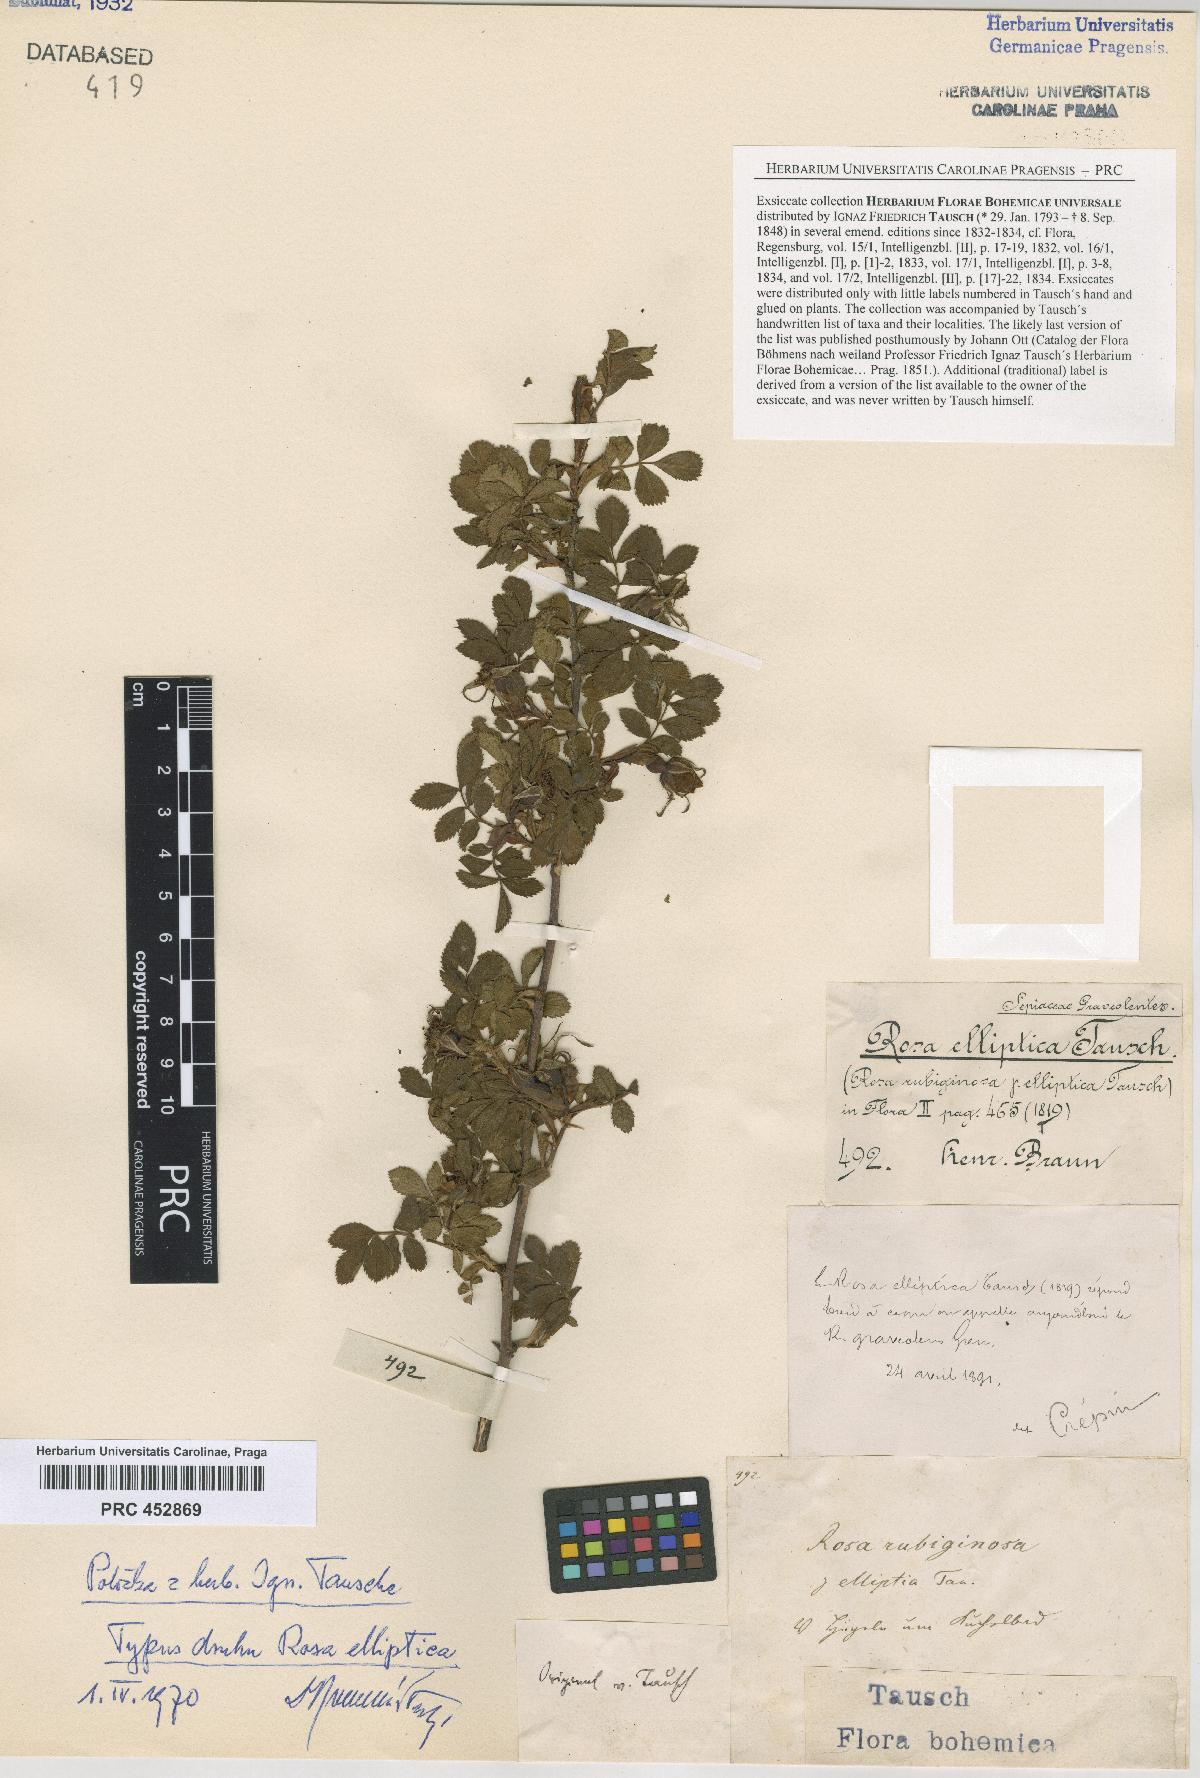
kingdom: Plantae
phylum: Tracheophyta
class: Magnoliopsida
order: Rosales
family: Rosaceae
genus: Rosa
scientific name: Rosa inodora
